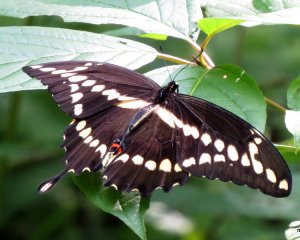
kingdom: Animalia
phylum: Arthropoda
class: Insecta
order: Lepidoptera
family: Papilionidae
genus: Papilio
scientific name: Papilio cresphontes
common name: Eastern Giant Swallowtail
